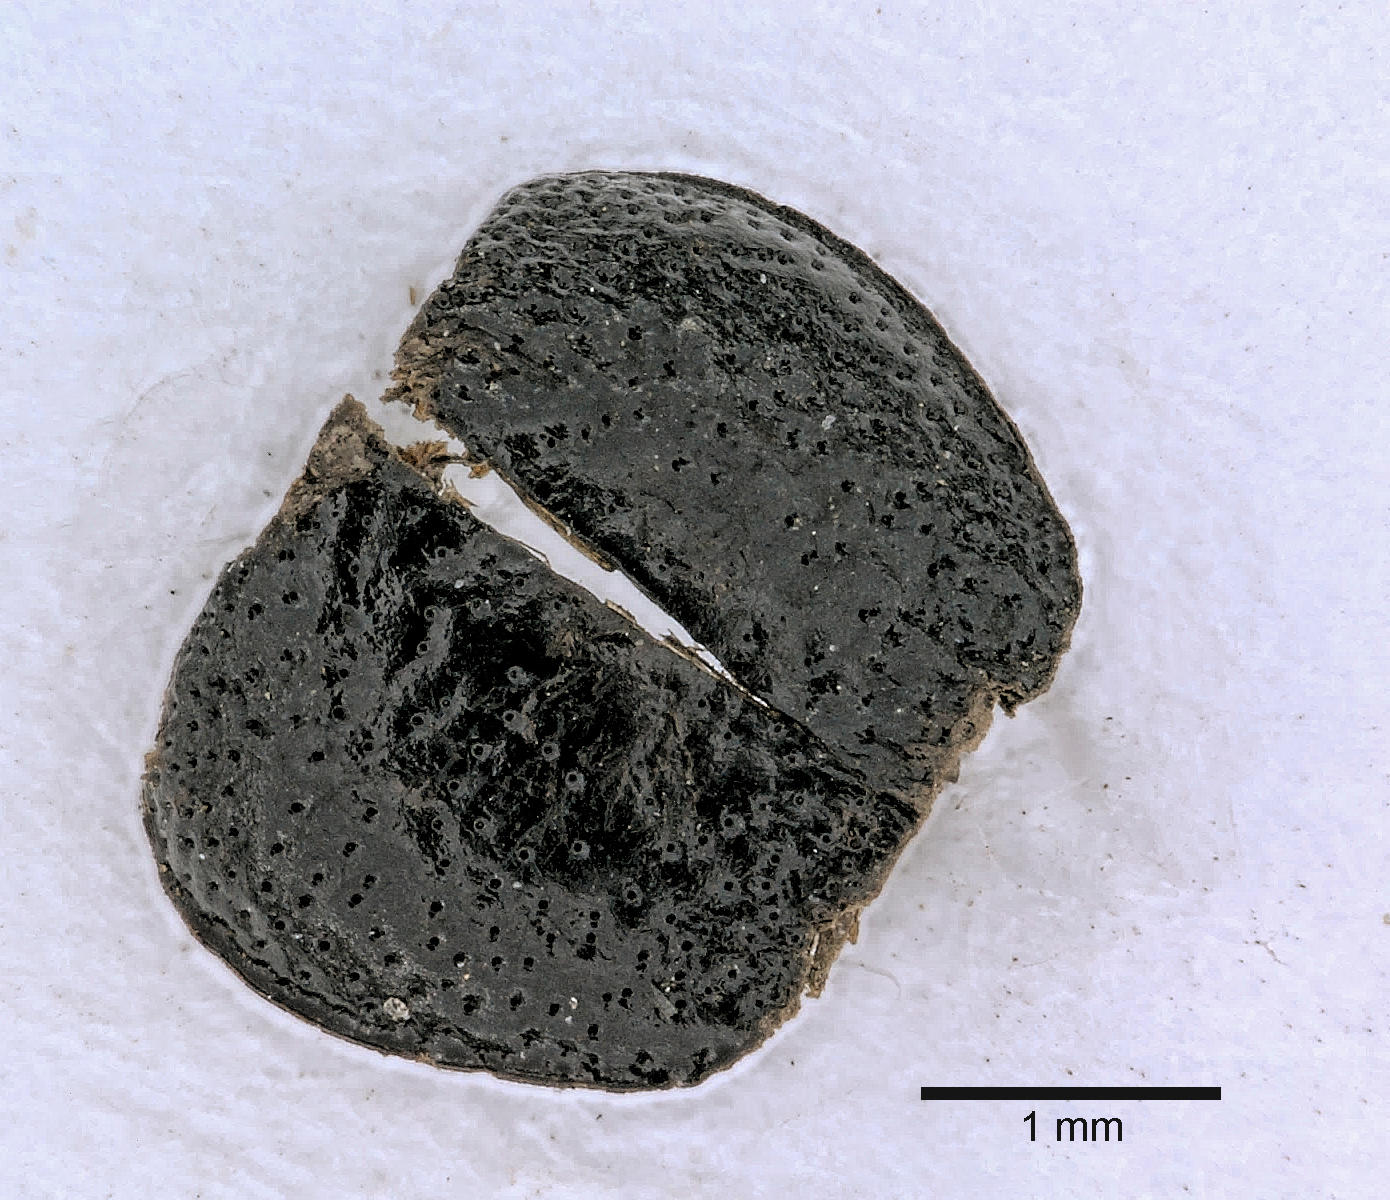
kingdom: Animalia
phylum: Arthropoda
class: Insecta
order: Coleoptera
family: Carabidae
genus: Dicheirus
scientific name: Dicheirus dilatatus
